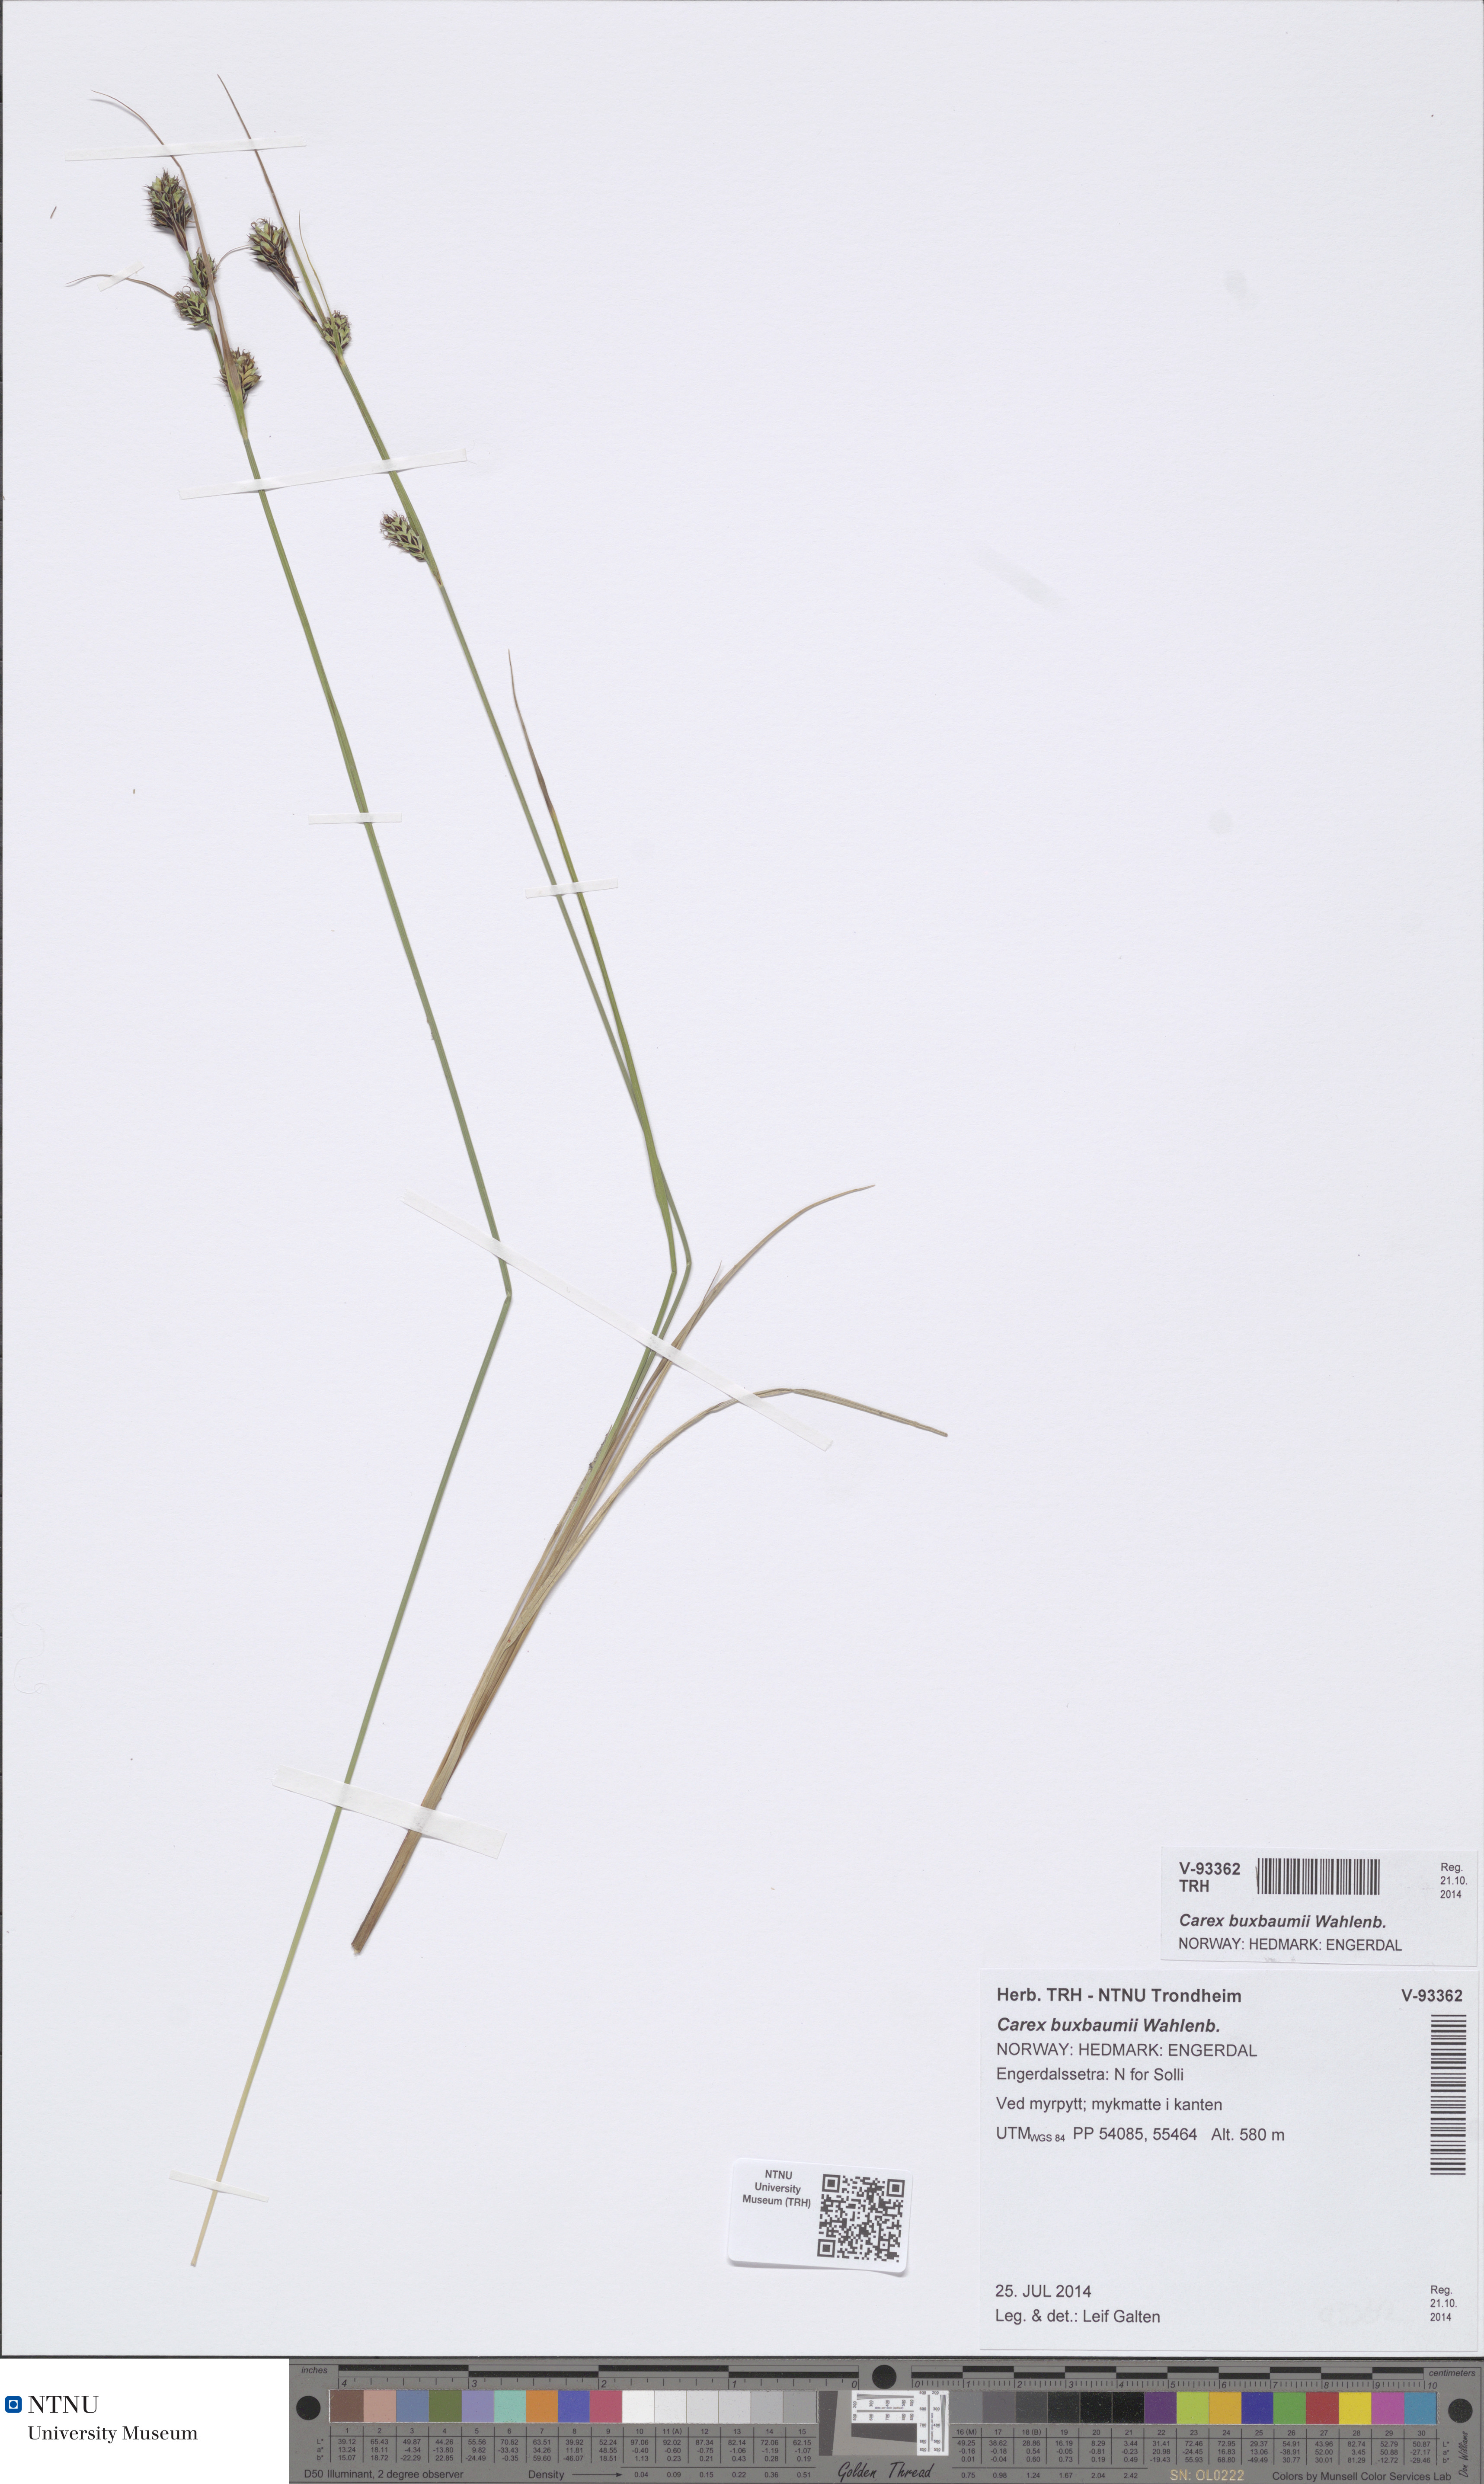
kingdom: Plantae
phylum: Tracheophyta
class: Liliopsida
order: Poales
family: Cyperaceae
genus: Carex
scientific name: Carex buxbaumii
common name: Club sedge
